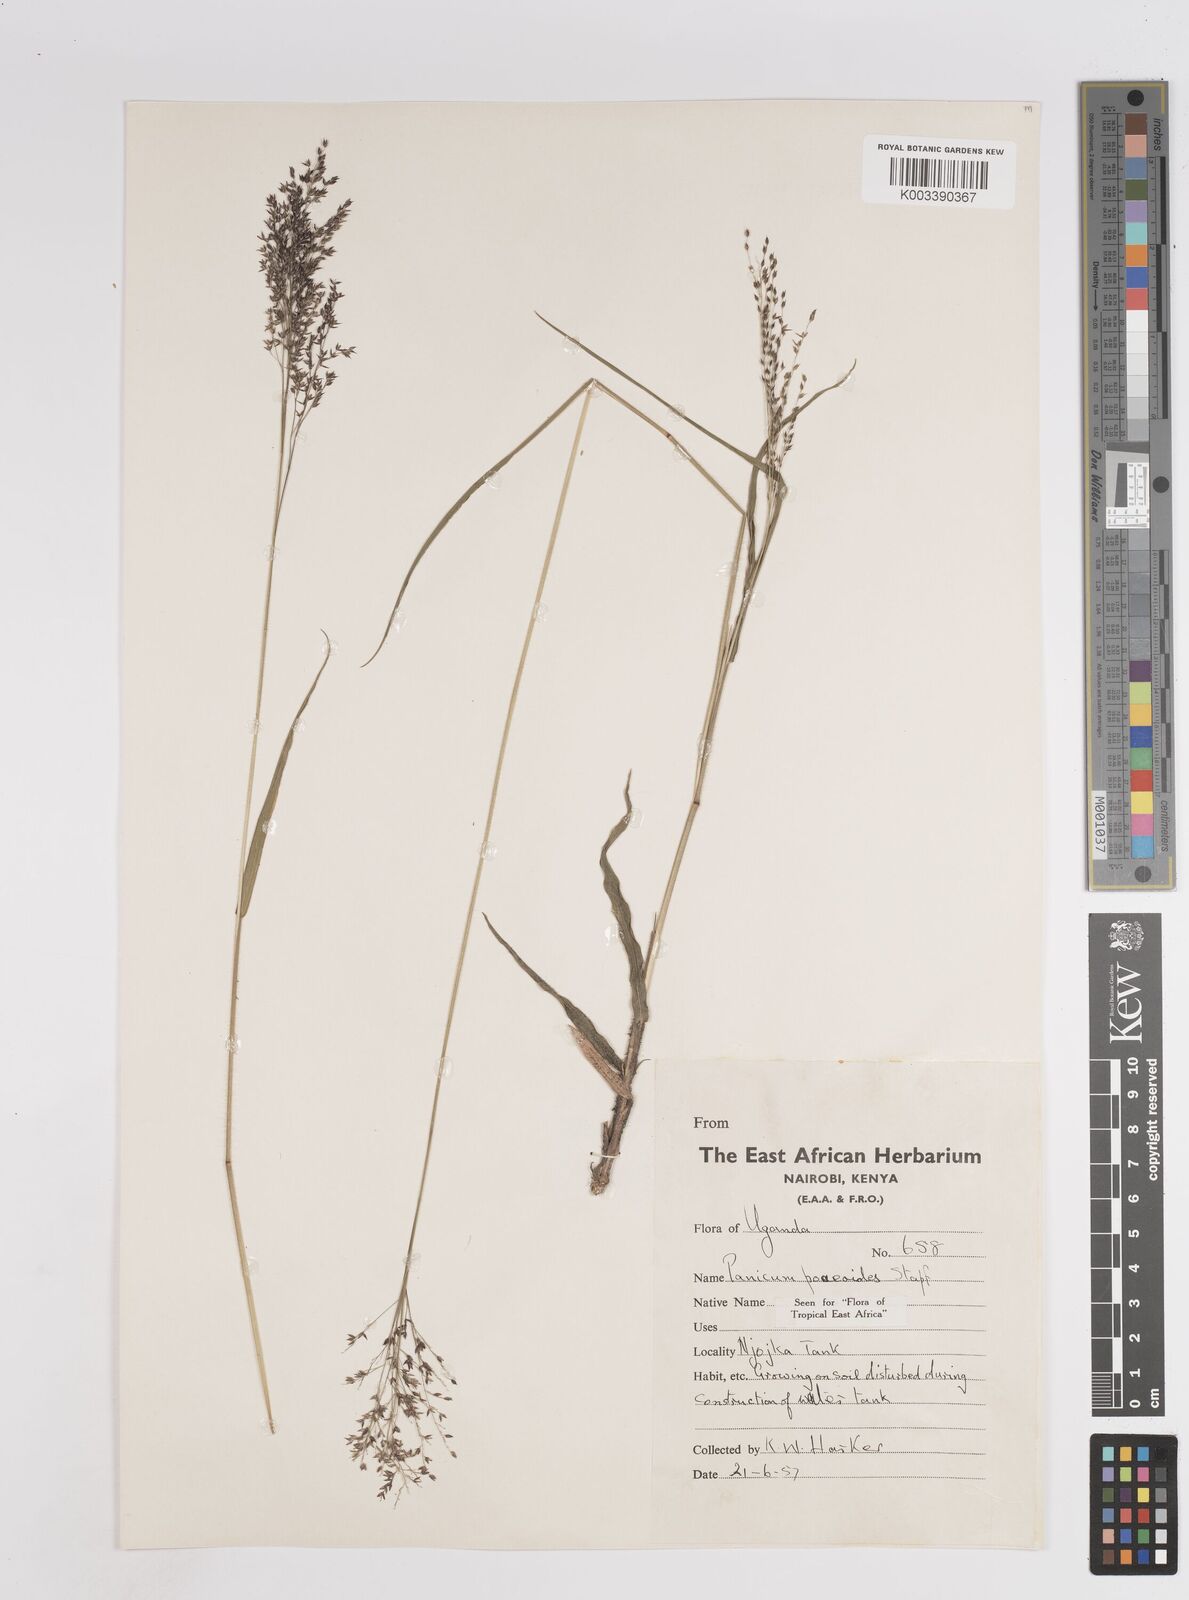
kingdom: Plantae
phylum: Tracheophyta
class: Liliopsida
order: Poales
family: Poaceae
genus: Panicum
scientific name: Panicum
